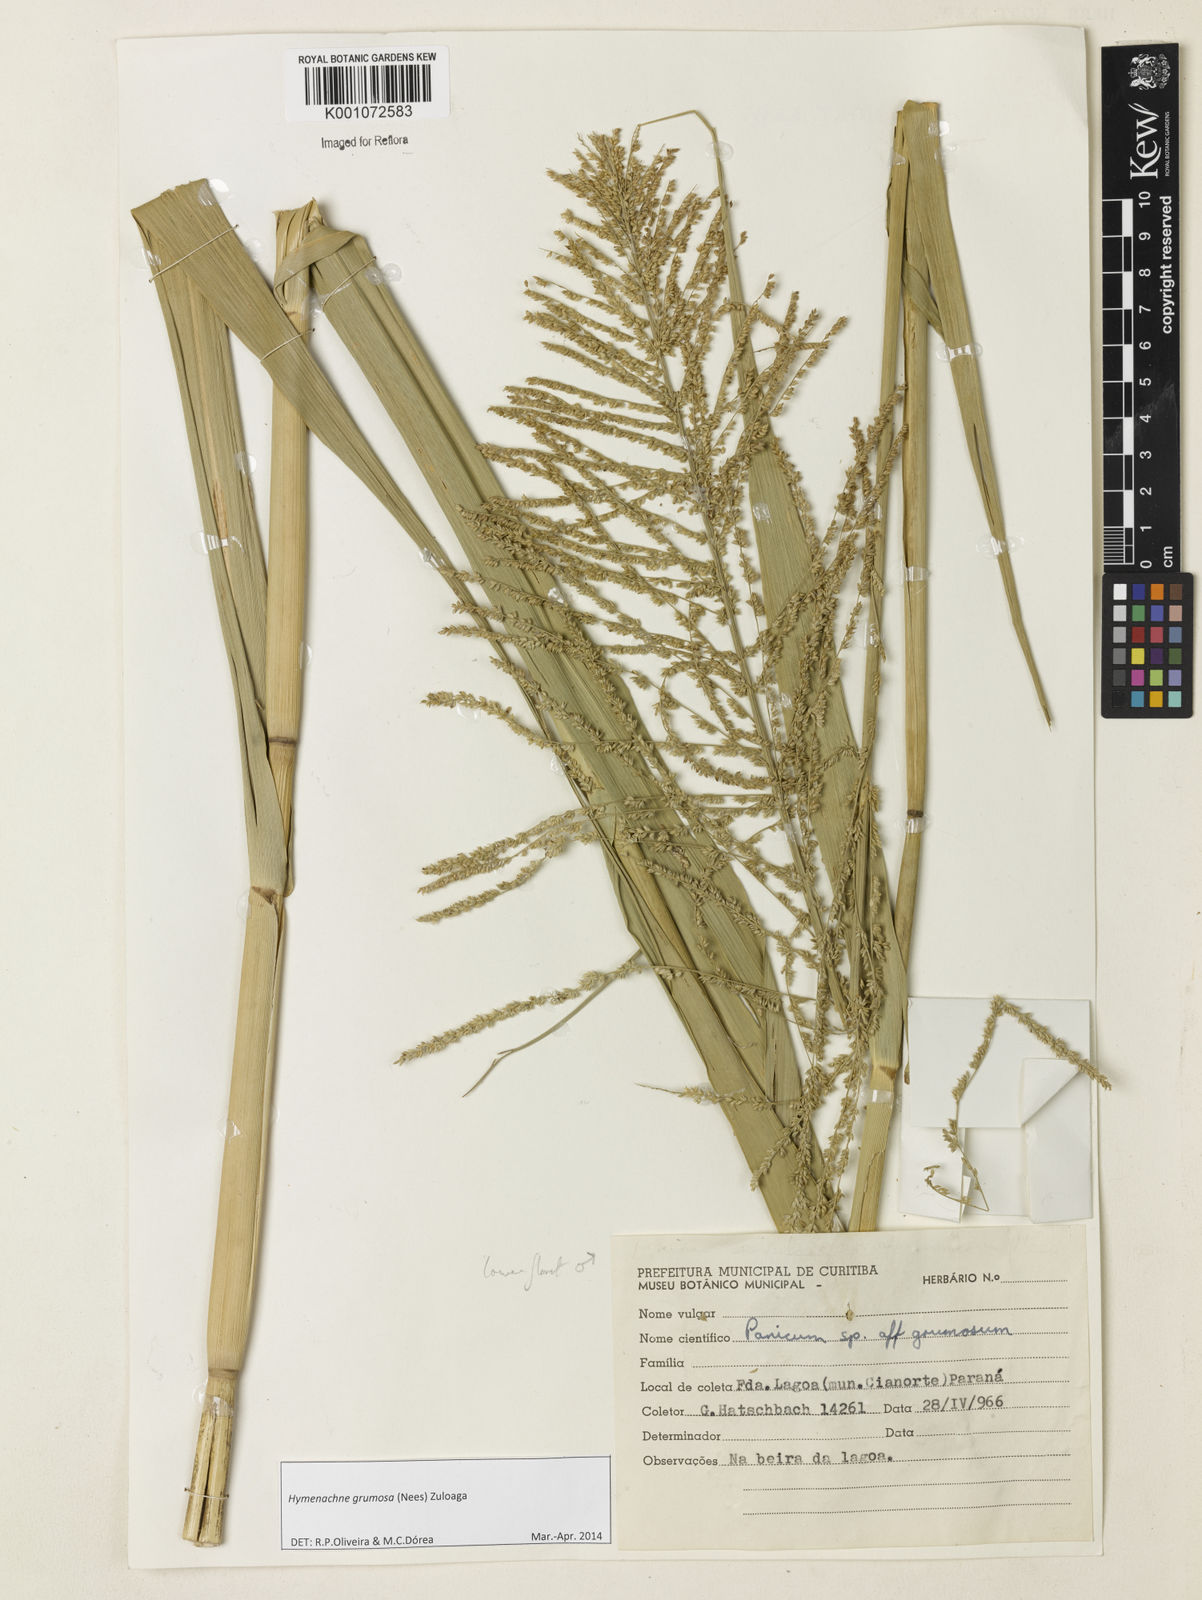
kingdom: Plantae
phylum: Tracheophyta
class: Liliopsida
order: Poales
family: Poaceae
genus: Hymenachne
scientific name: Hymenachne grumosa
